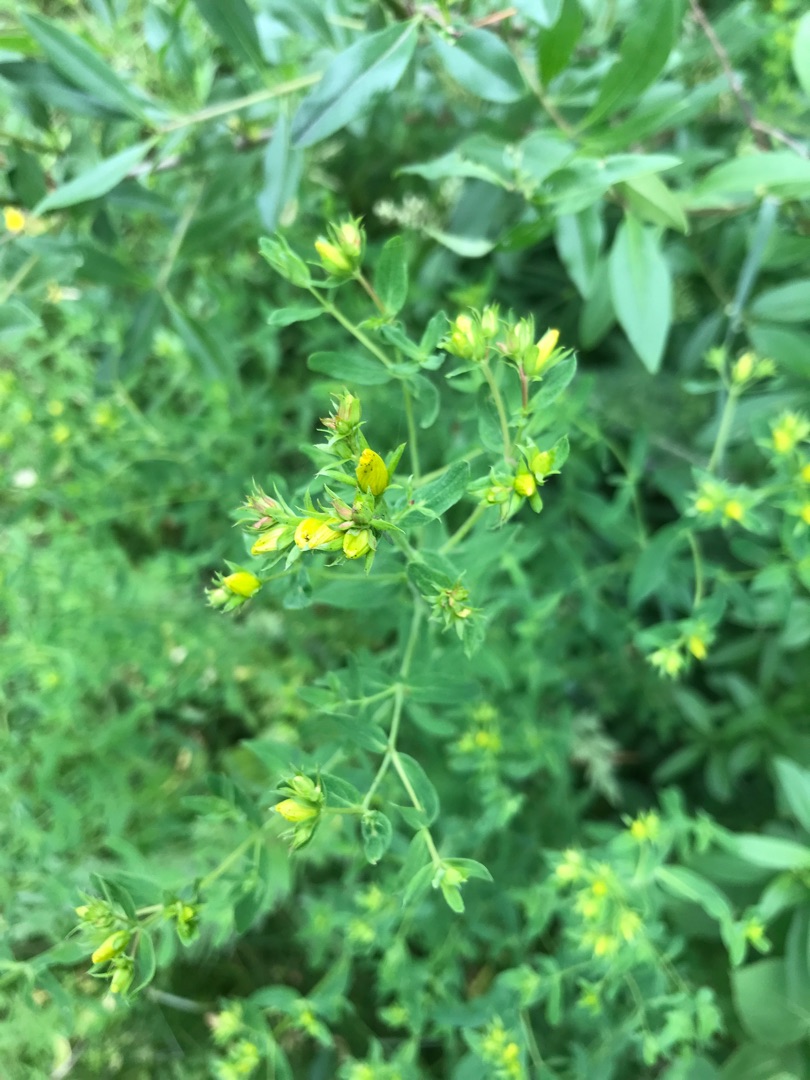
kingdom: Plantae
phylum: Tracheophyta
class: Magnoliopsida
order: Malpighiales
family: Hypericaceae
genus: Hypericum
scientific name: Hypericum perforatum
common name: Prikbladet perikon
